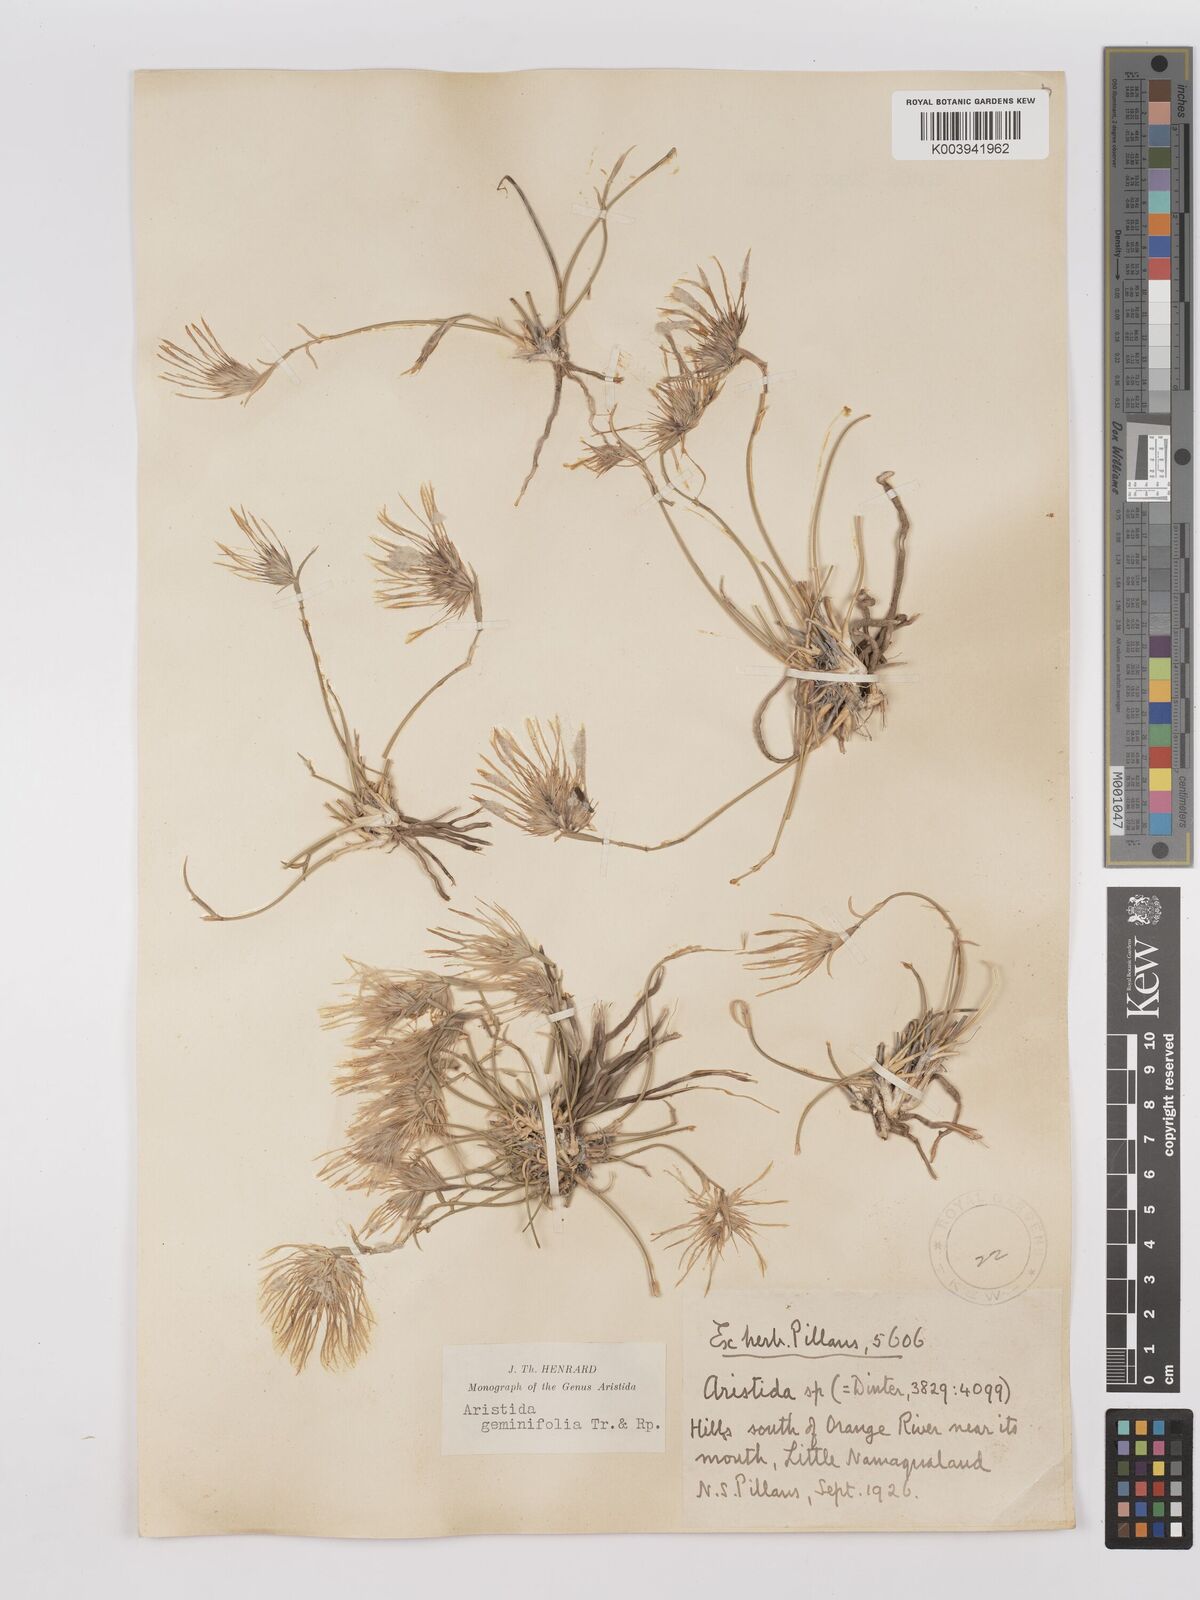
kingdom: Plantae
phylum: Tracheophyta
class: Liliopsida
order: Poales
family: Poaceae
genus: Stipagrostis
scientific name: Stipagrostis geminifolia
